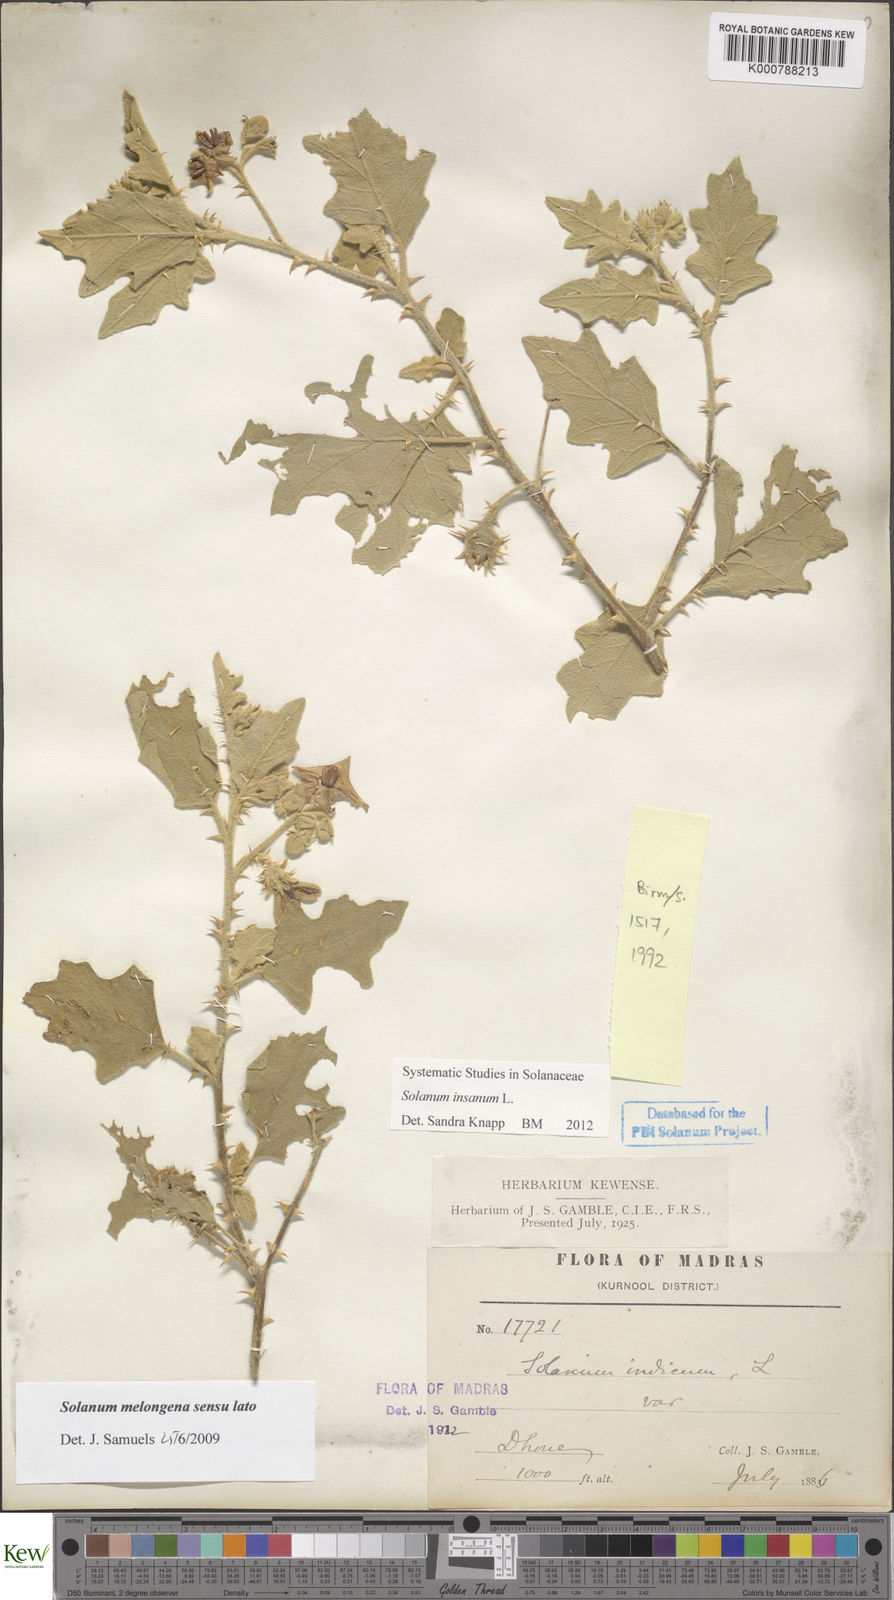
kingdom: Plantae
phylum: Tracheophyta
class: Magnoliopsida
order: Solanales
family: Solanaceae
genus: Solanum
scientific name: Solanum insanum
